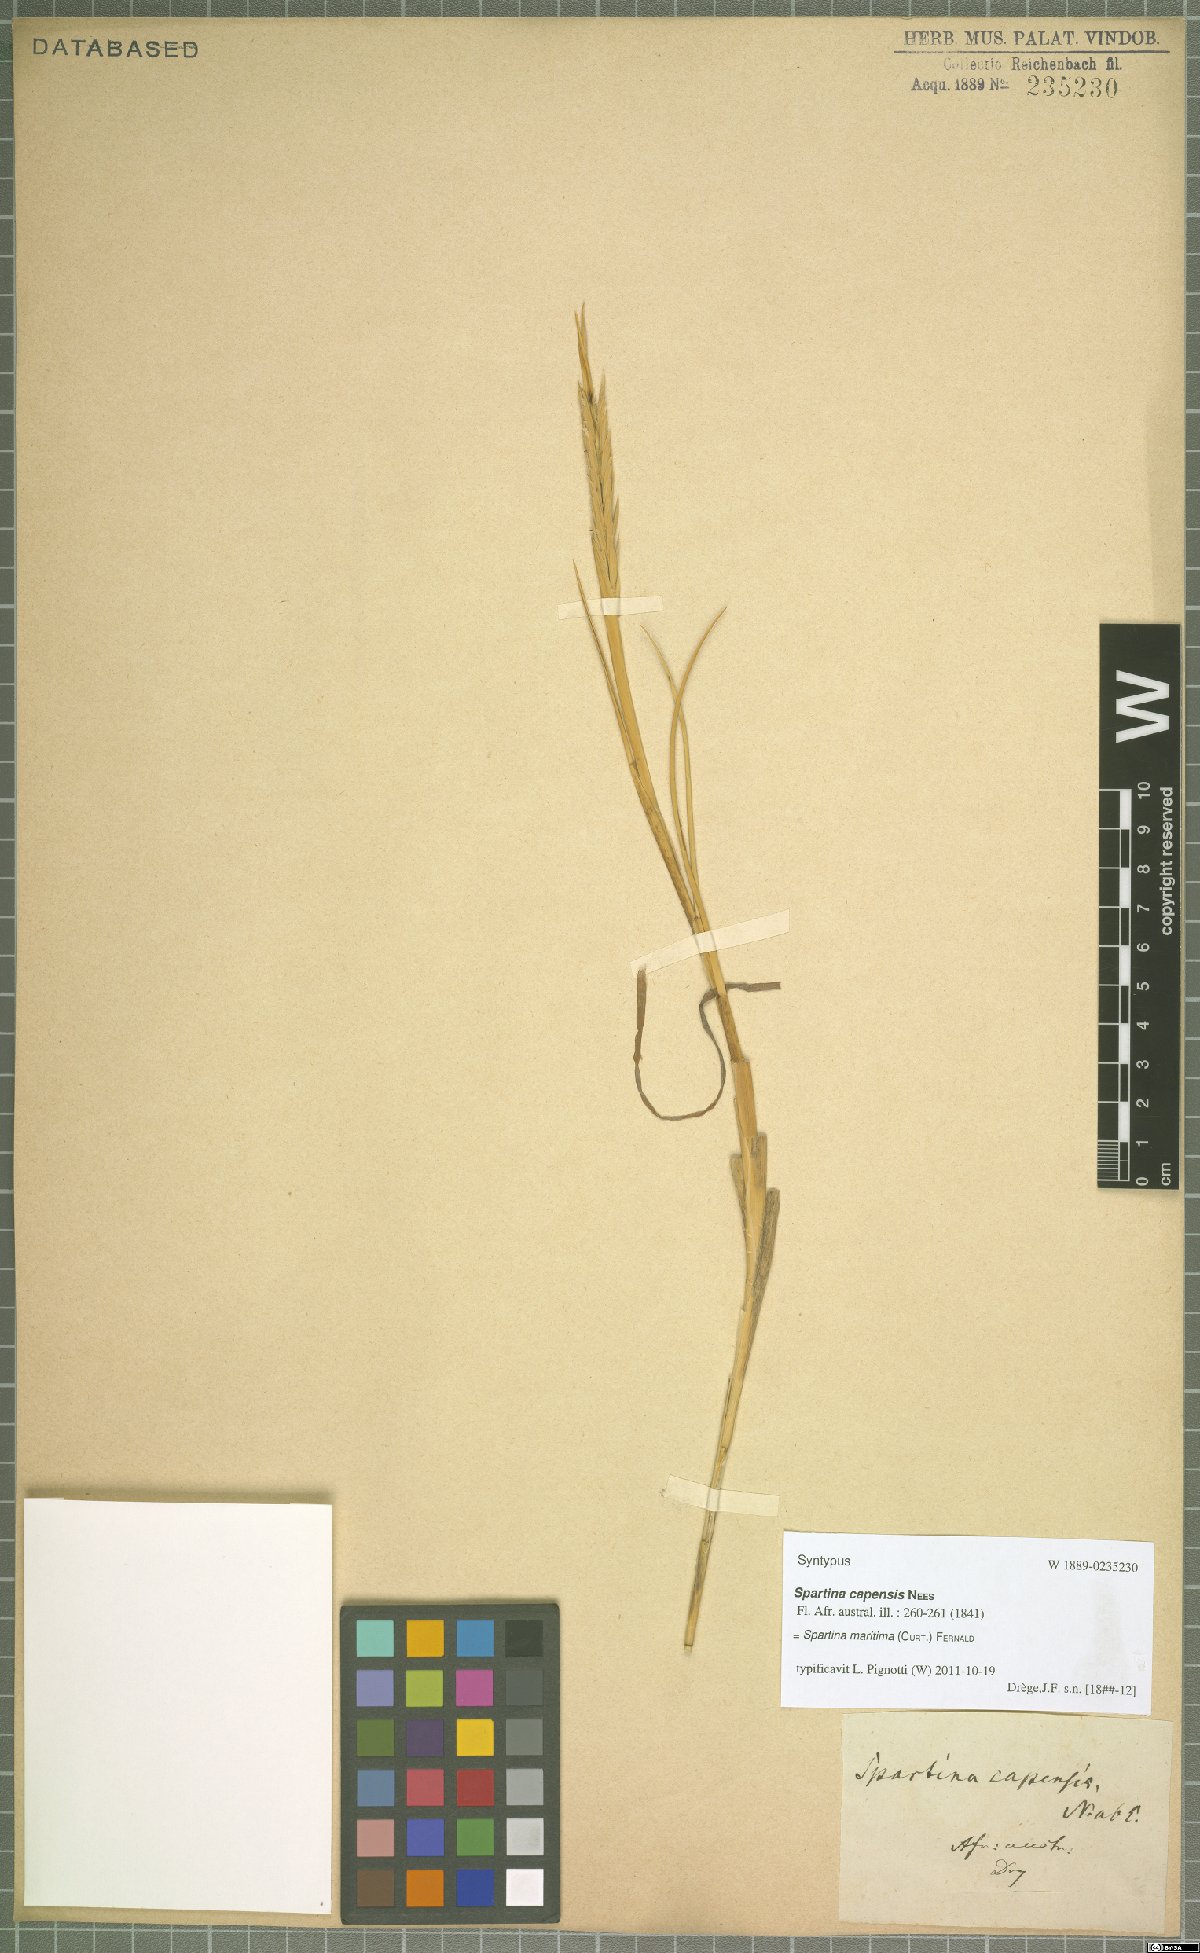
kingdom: Plantae
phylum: Tracheophyta
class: Liliopsida
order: Poales
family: Poaceae
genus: Sporobolus
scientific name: Sporobolus maritimus
